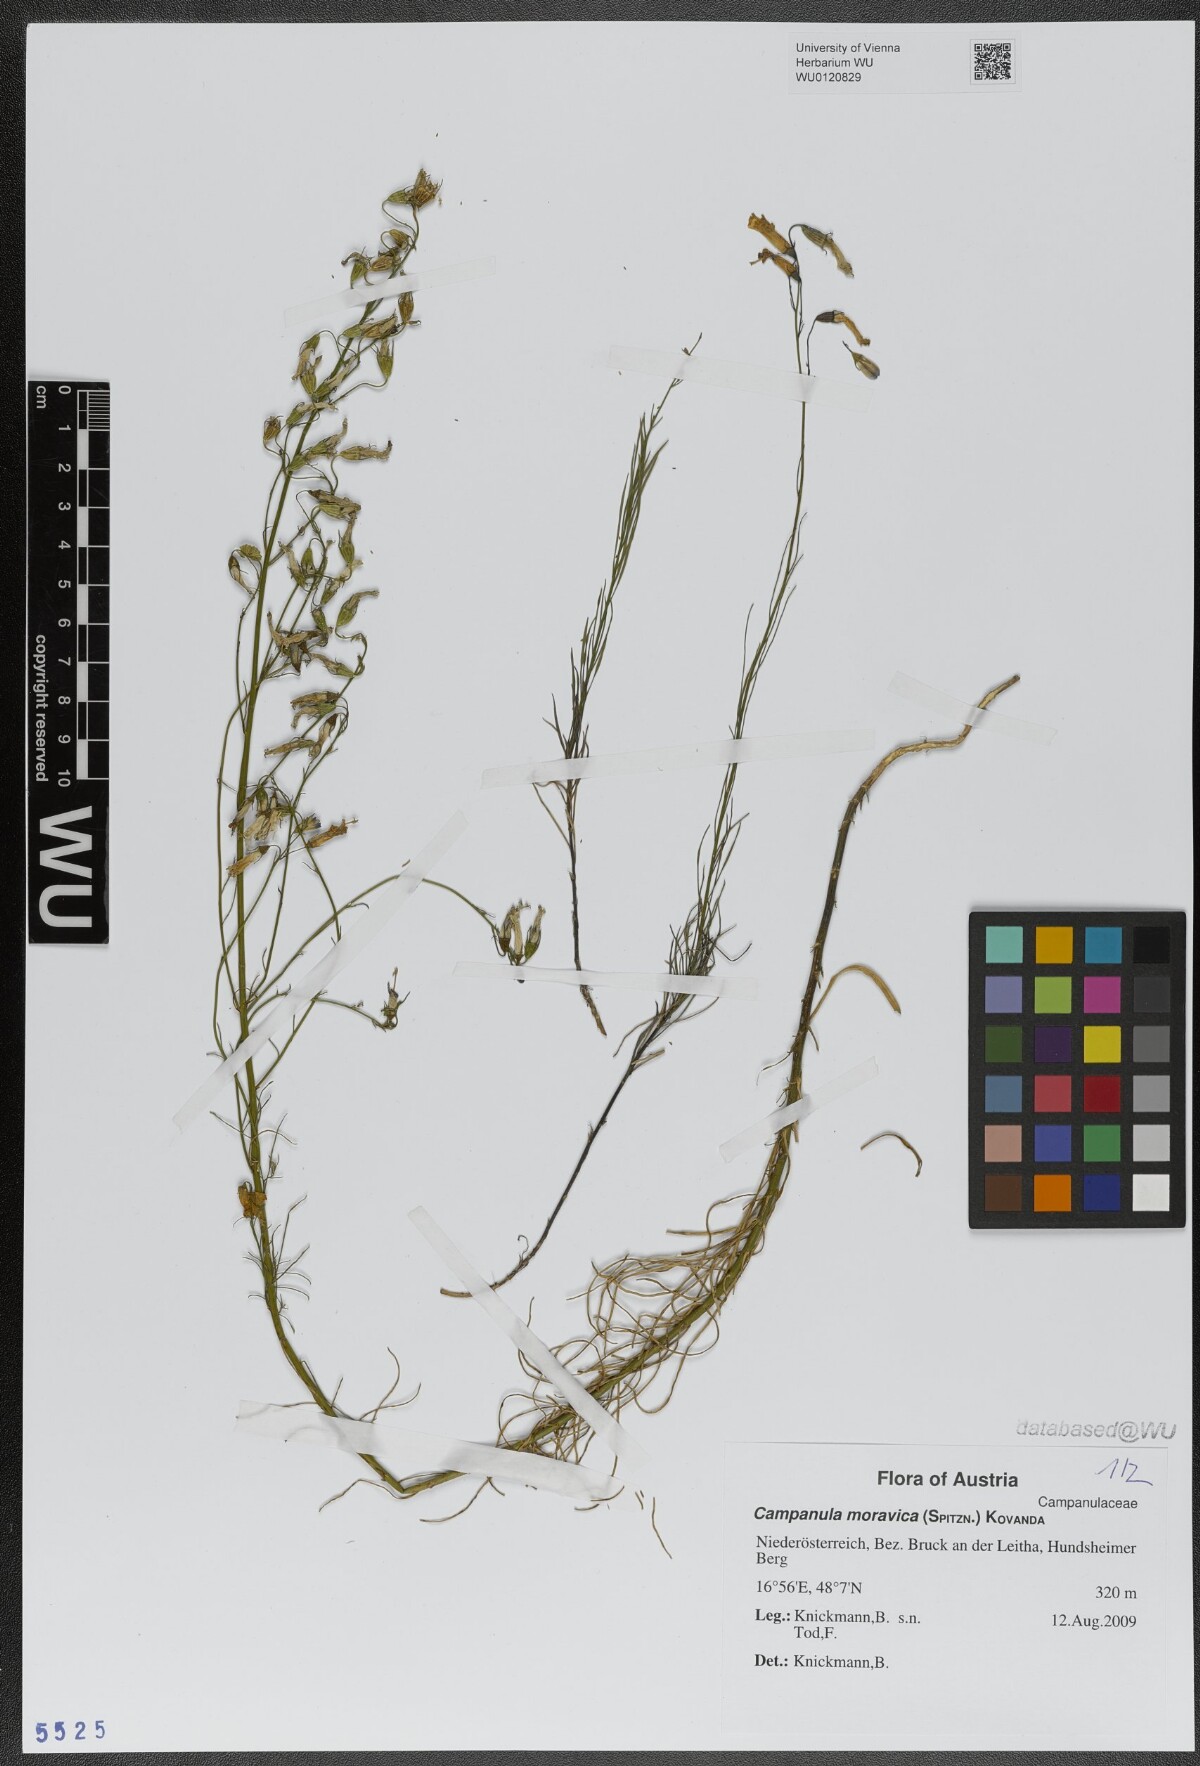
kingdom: Plantae
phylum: Tracheophyta
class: Magnoliopsida
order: Asterales
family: Campanulaceae
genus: Campanula
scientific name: Campanula moravica
